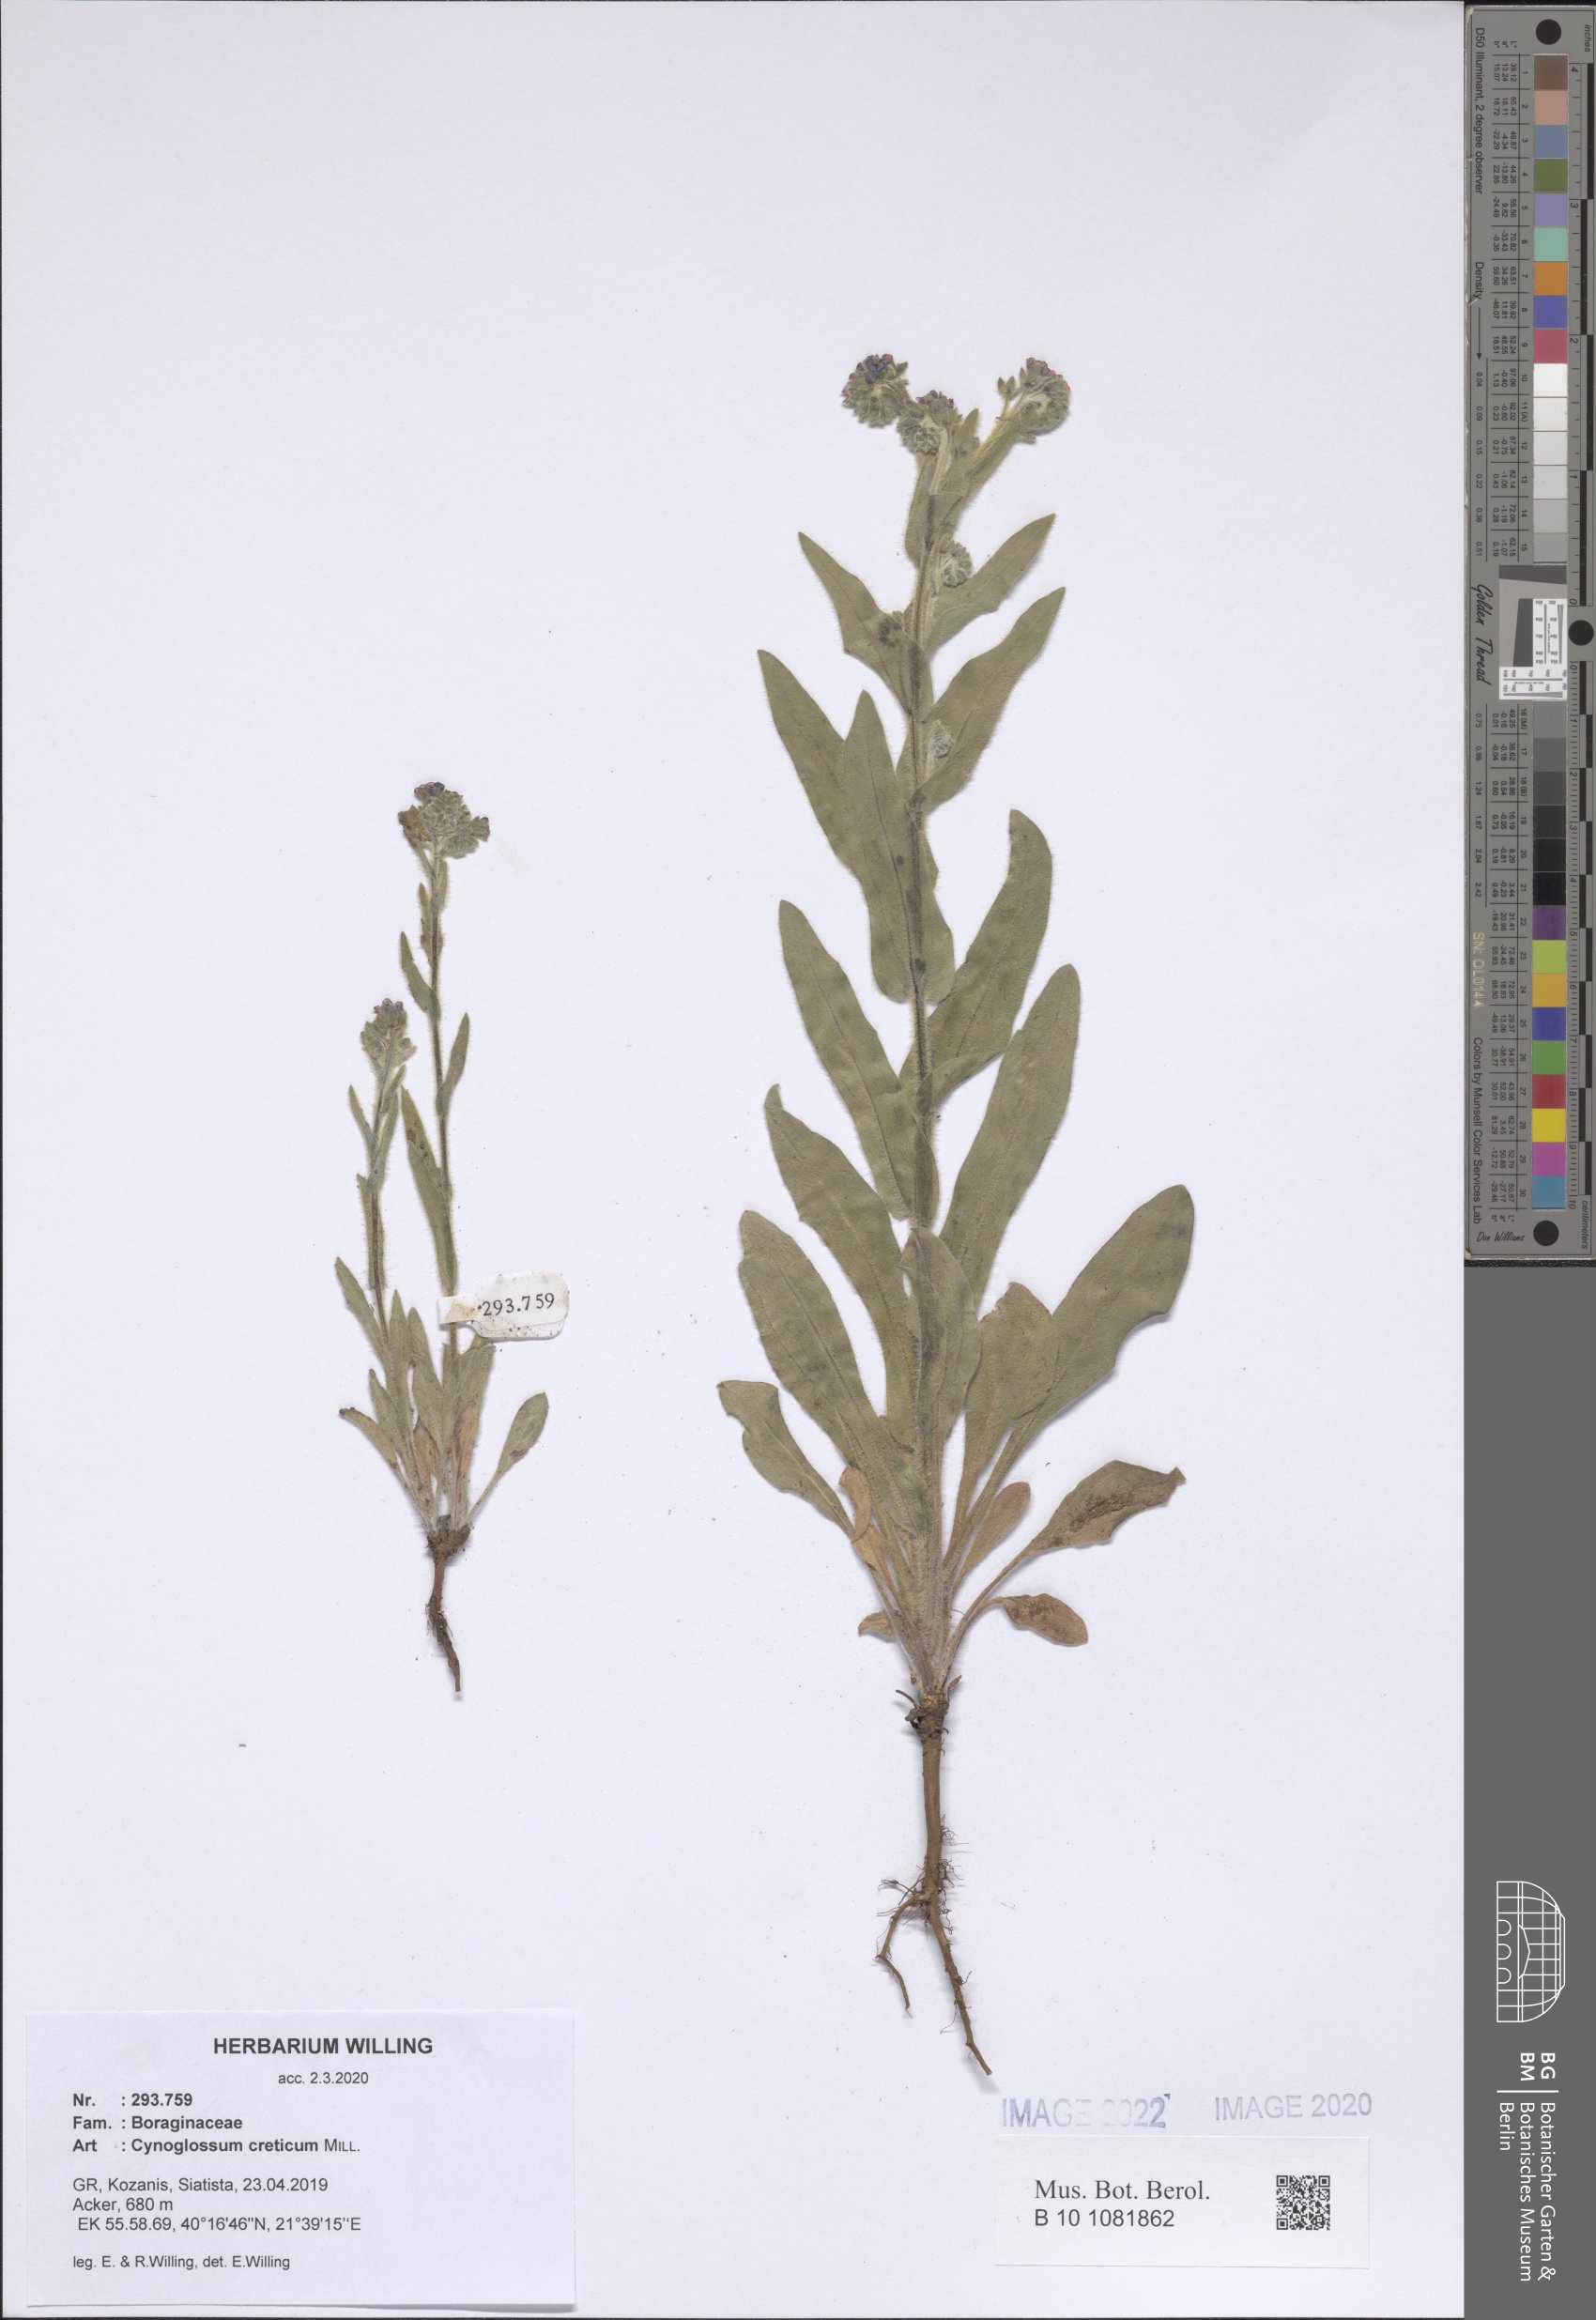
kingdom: Plantae
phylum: Tracheophyta
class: Magnoliopsida
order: Boraginales
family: Boraginaceae
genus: Cynoglossum
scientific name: Cynoglossum creticum
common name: Blue hound's tongue
